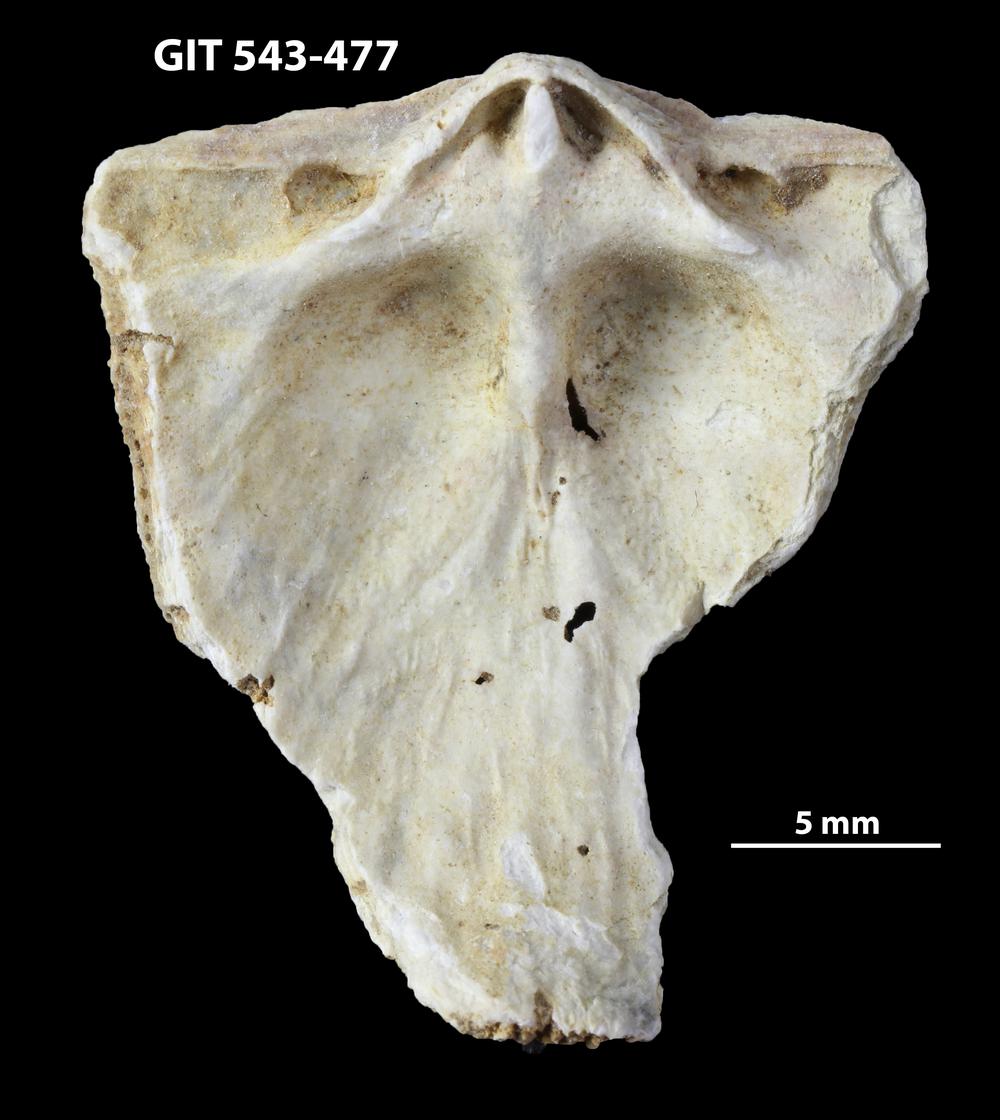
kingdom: Animalia
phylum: Brachiopoda
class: Rhynchonellata
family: Clitambonitidae
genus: Clitambonites
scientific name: Clitambonites squamatus
